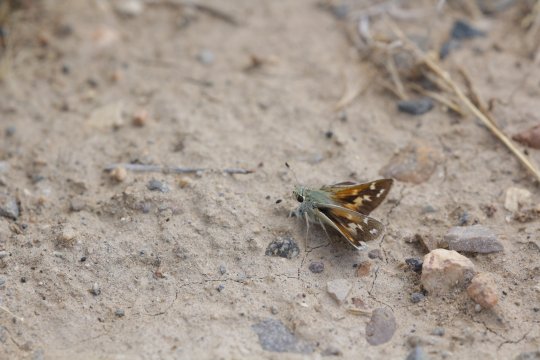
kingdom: Animalia
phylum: Arthropoda
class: Insecta
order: Lepidoptera
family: Hesperiidae
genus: Hesperia
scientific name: Hesperia juba
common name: Juba Skipper
